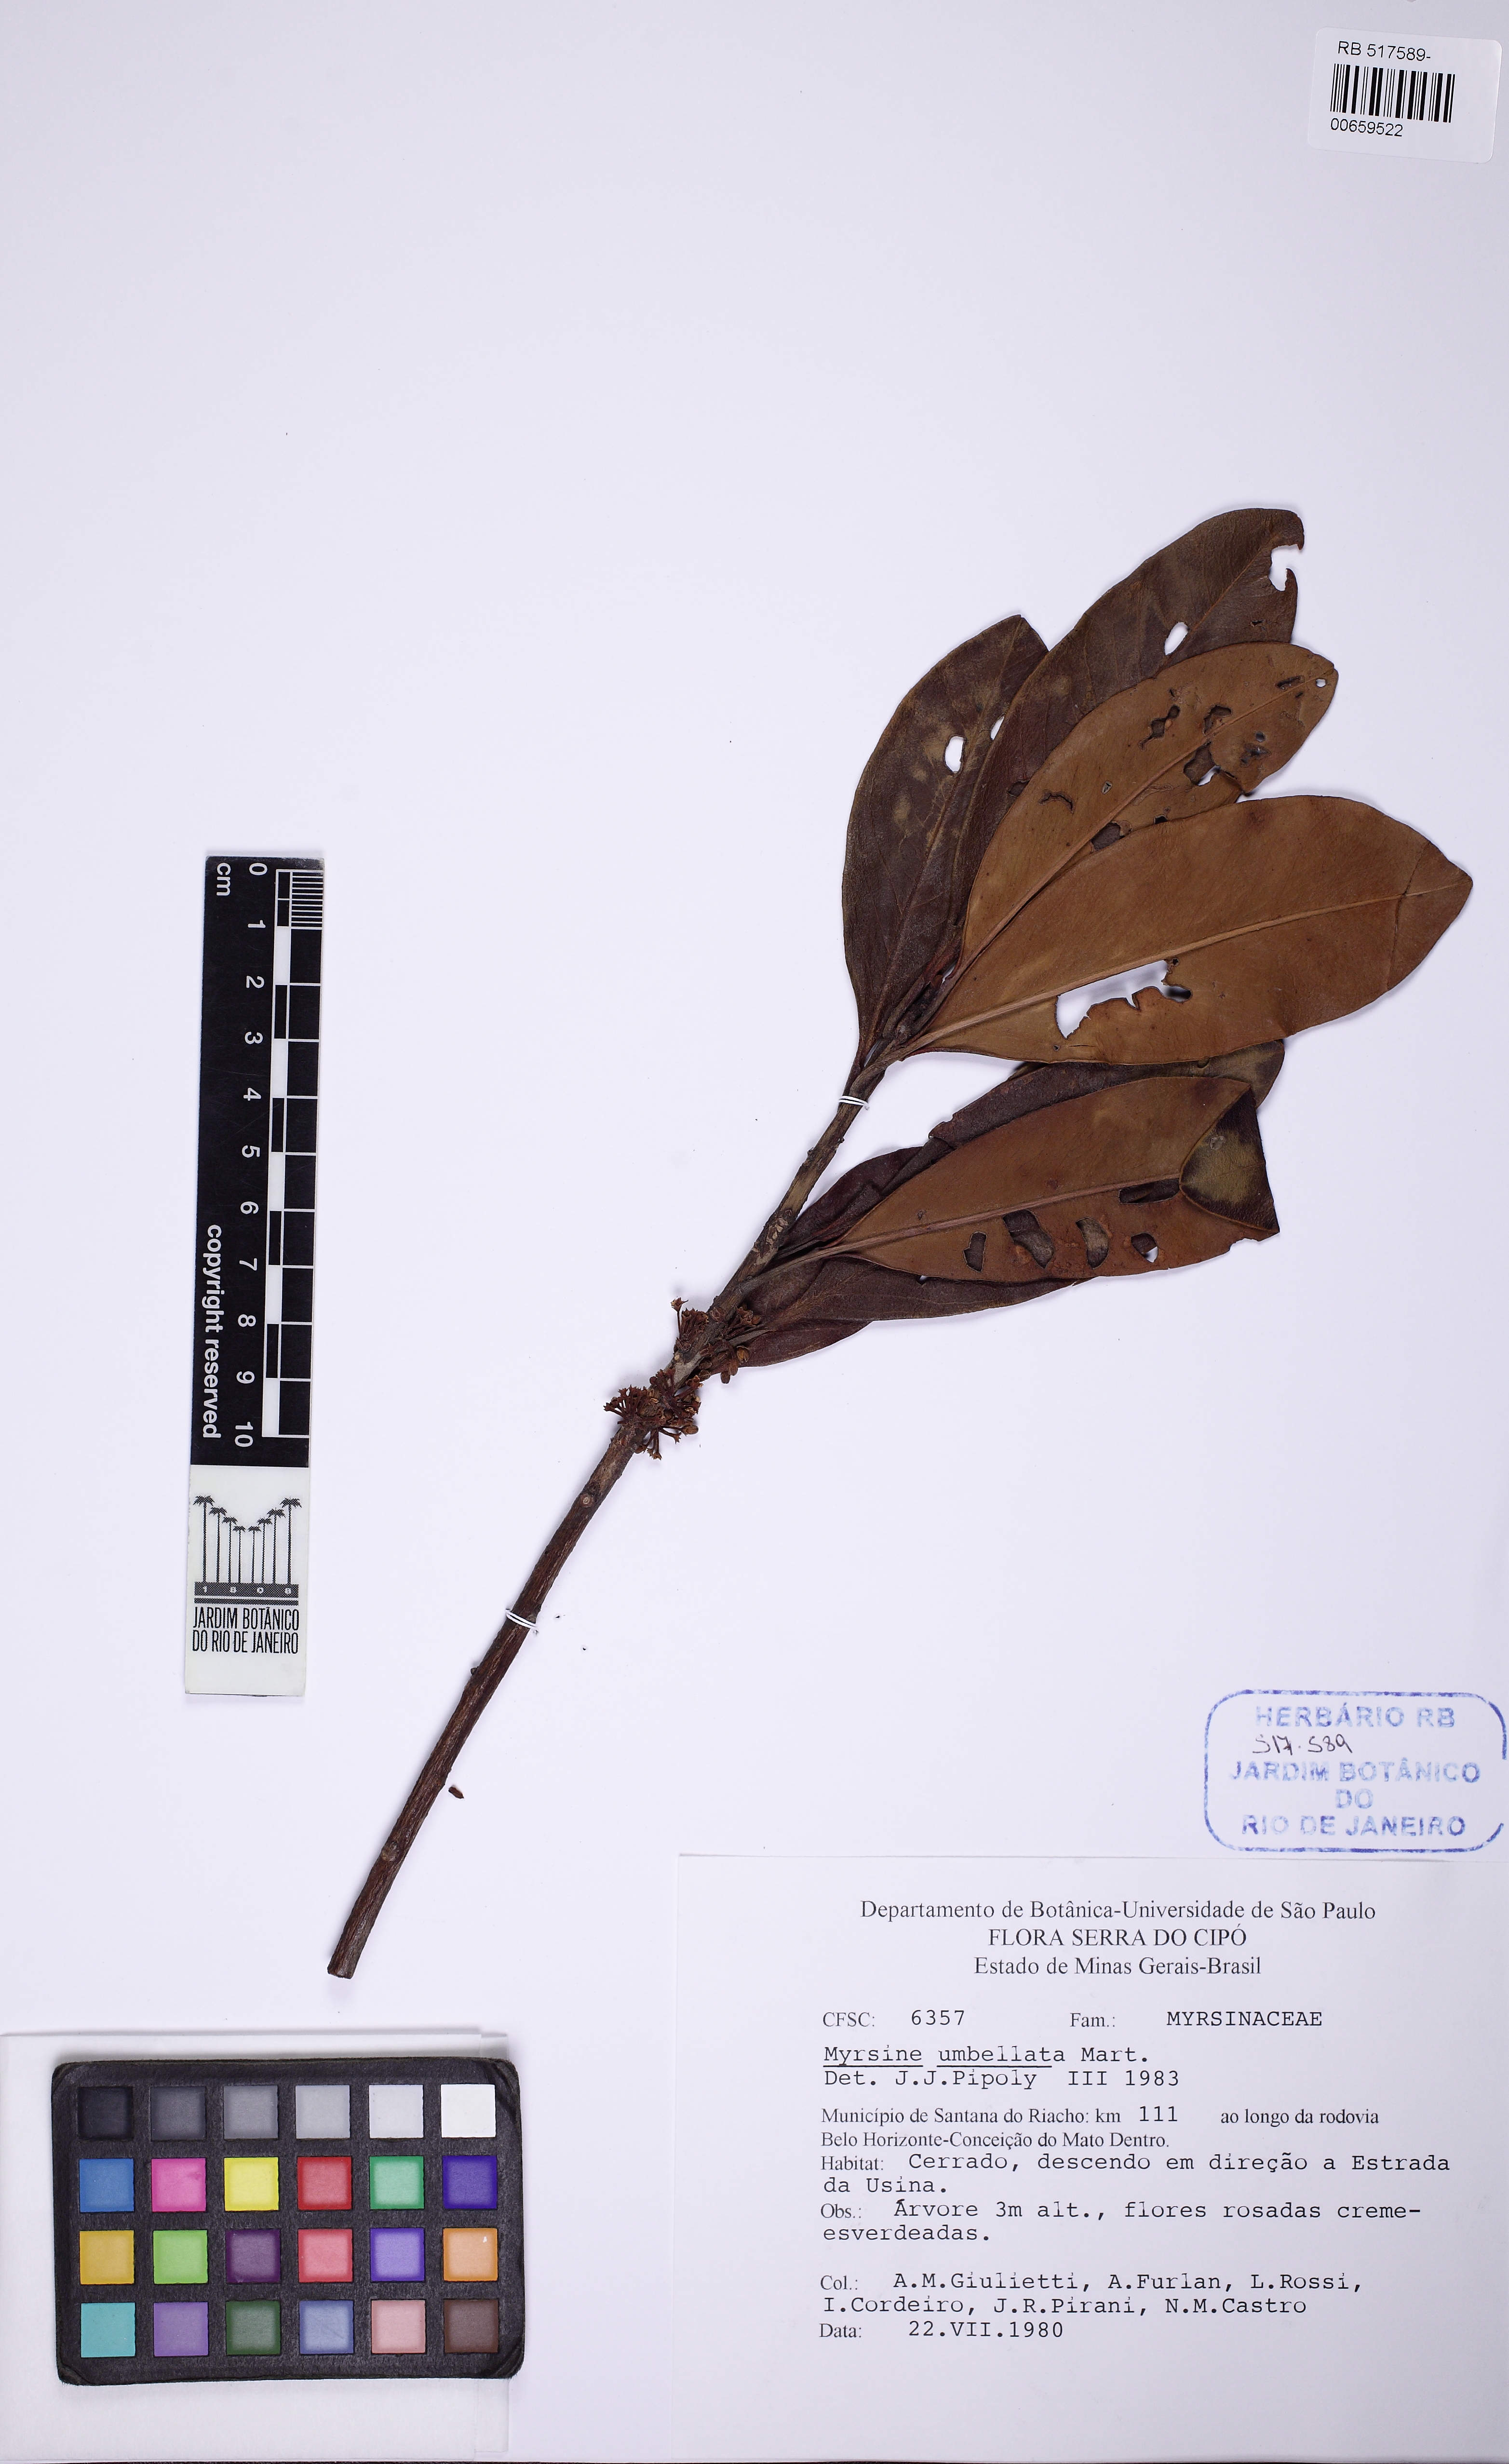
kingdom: Plantae
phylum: Tracheophyta
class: Magnoliopsida
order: Ericales
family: Primulaceae
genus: Myrsine
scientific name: Myrsine umbellata
